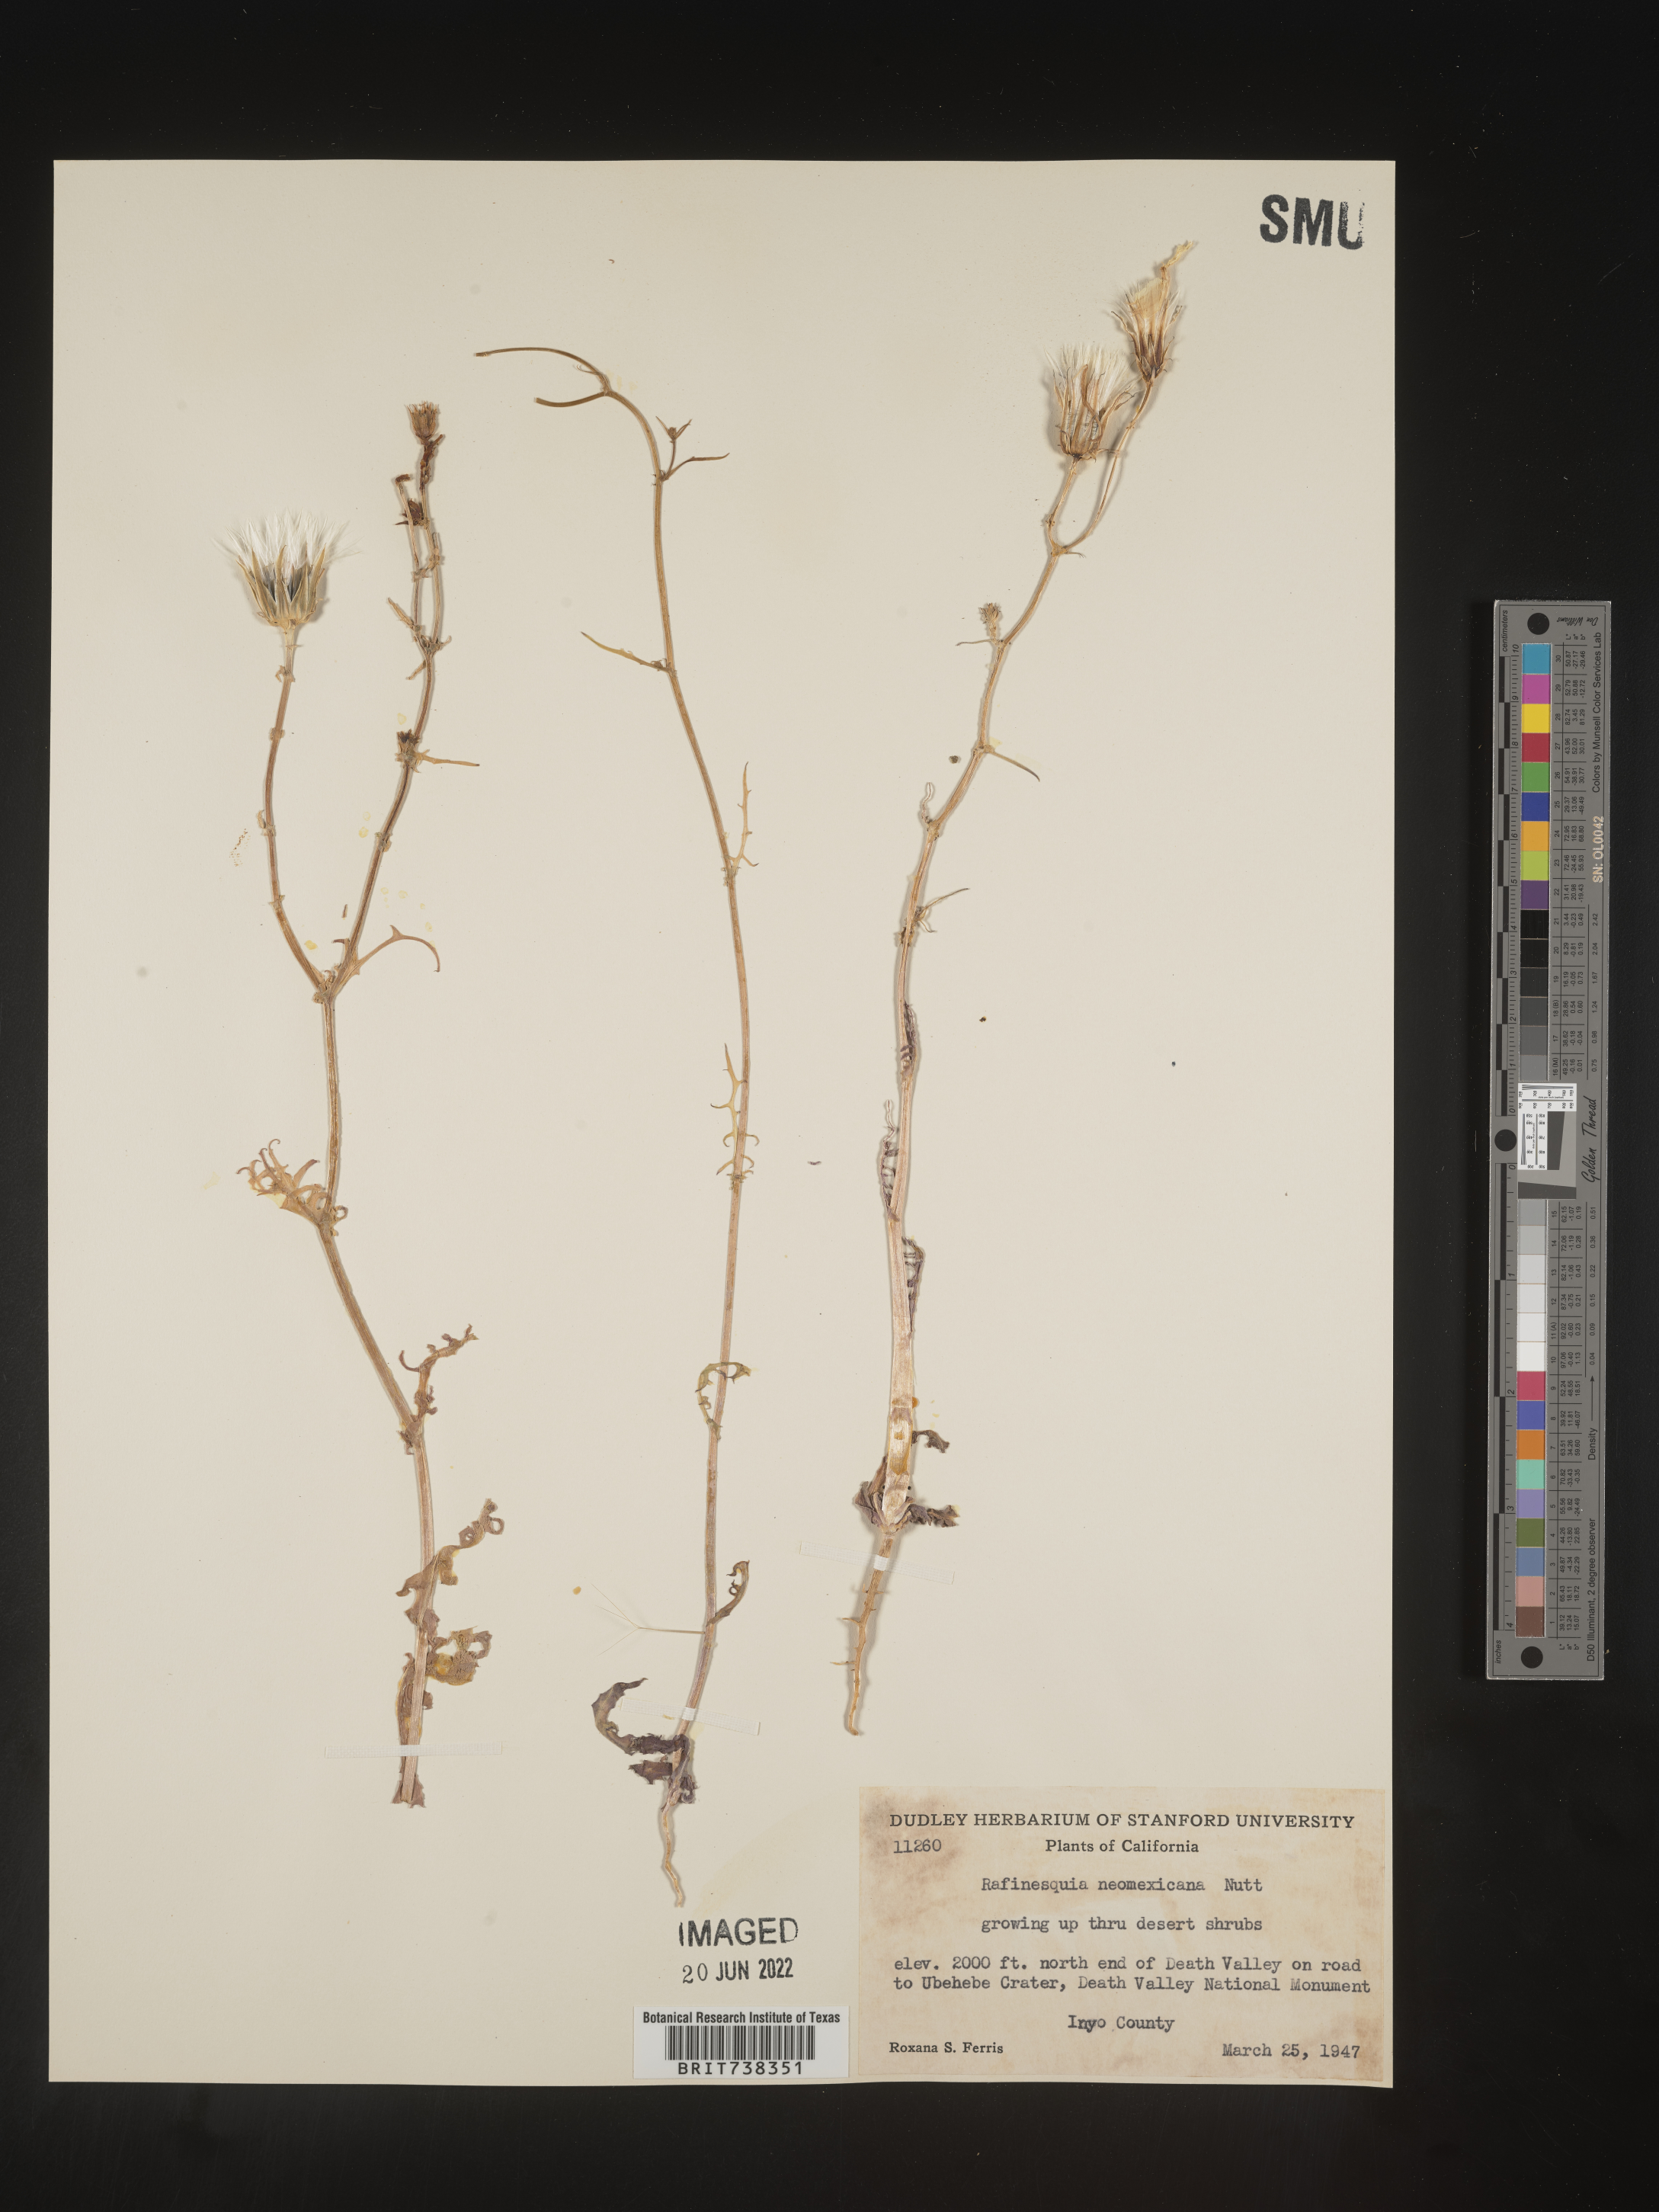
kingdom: Plantae
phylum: Tracheophyta
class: Magnoliopsida
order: Asterales
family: Asteraceae
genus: Rafinesquia
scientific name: Rafinesquia
